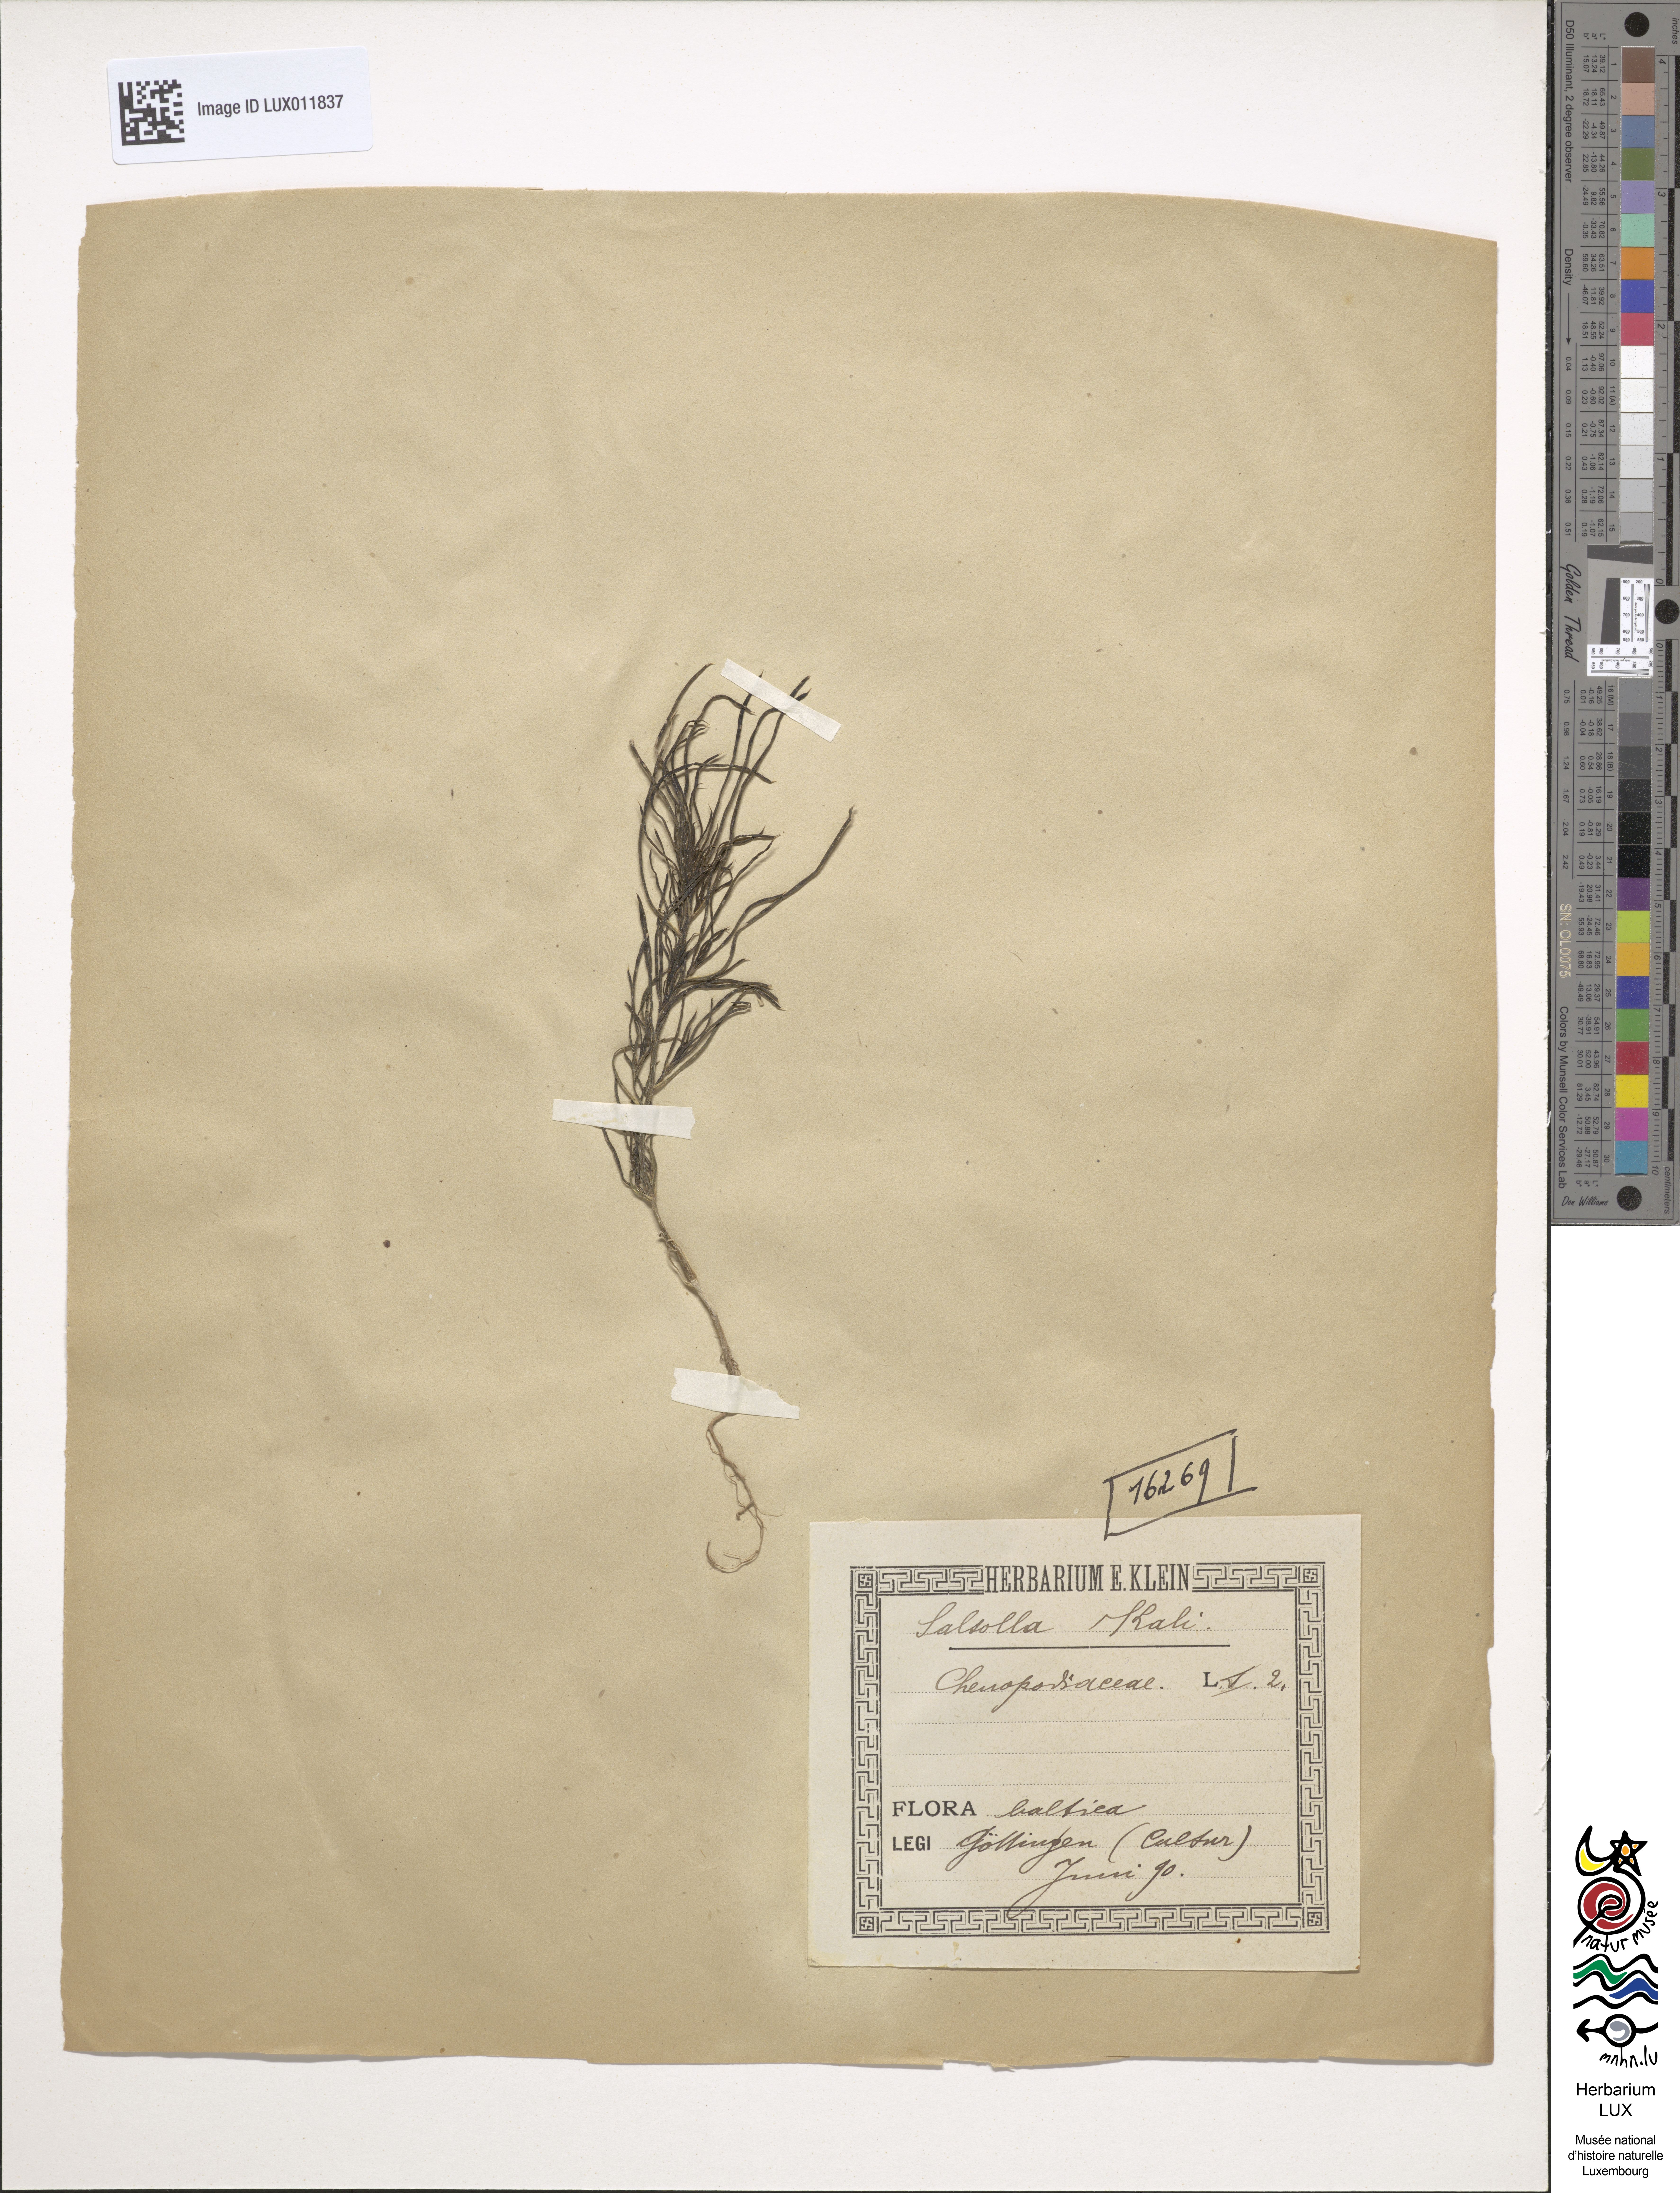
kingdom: Plantae
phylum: Tracheophyta
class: Magnoliopsida
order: Caryophyllales
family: Amaranthaceae
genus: Salsola
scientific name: Salsola kali
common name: Saltwort
